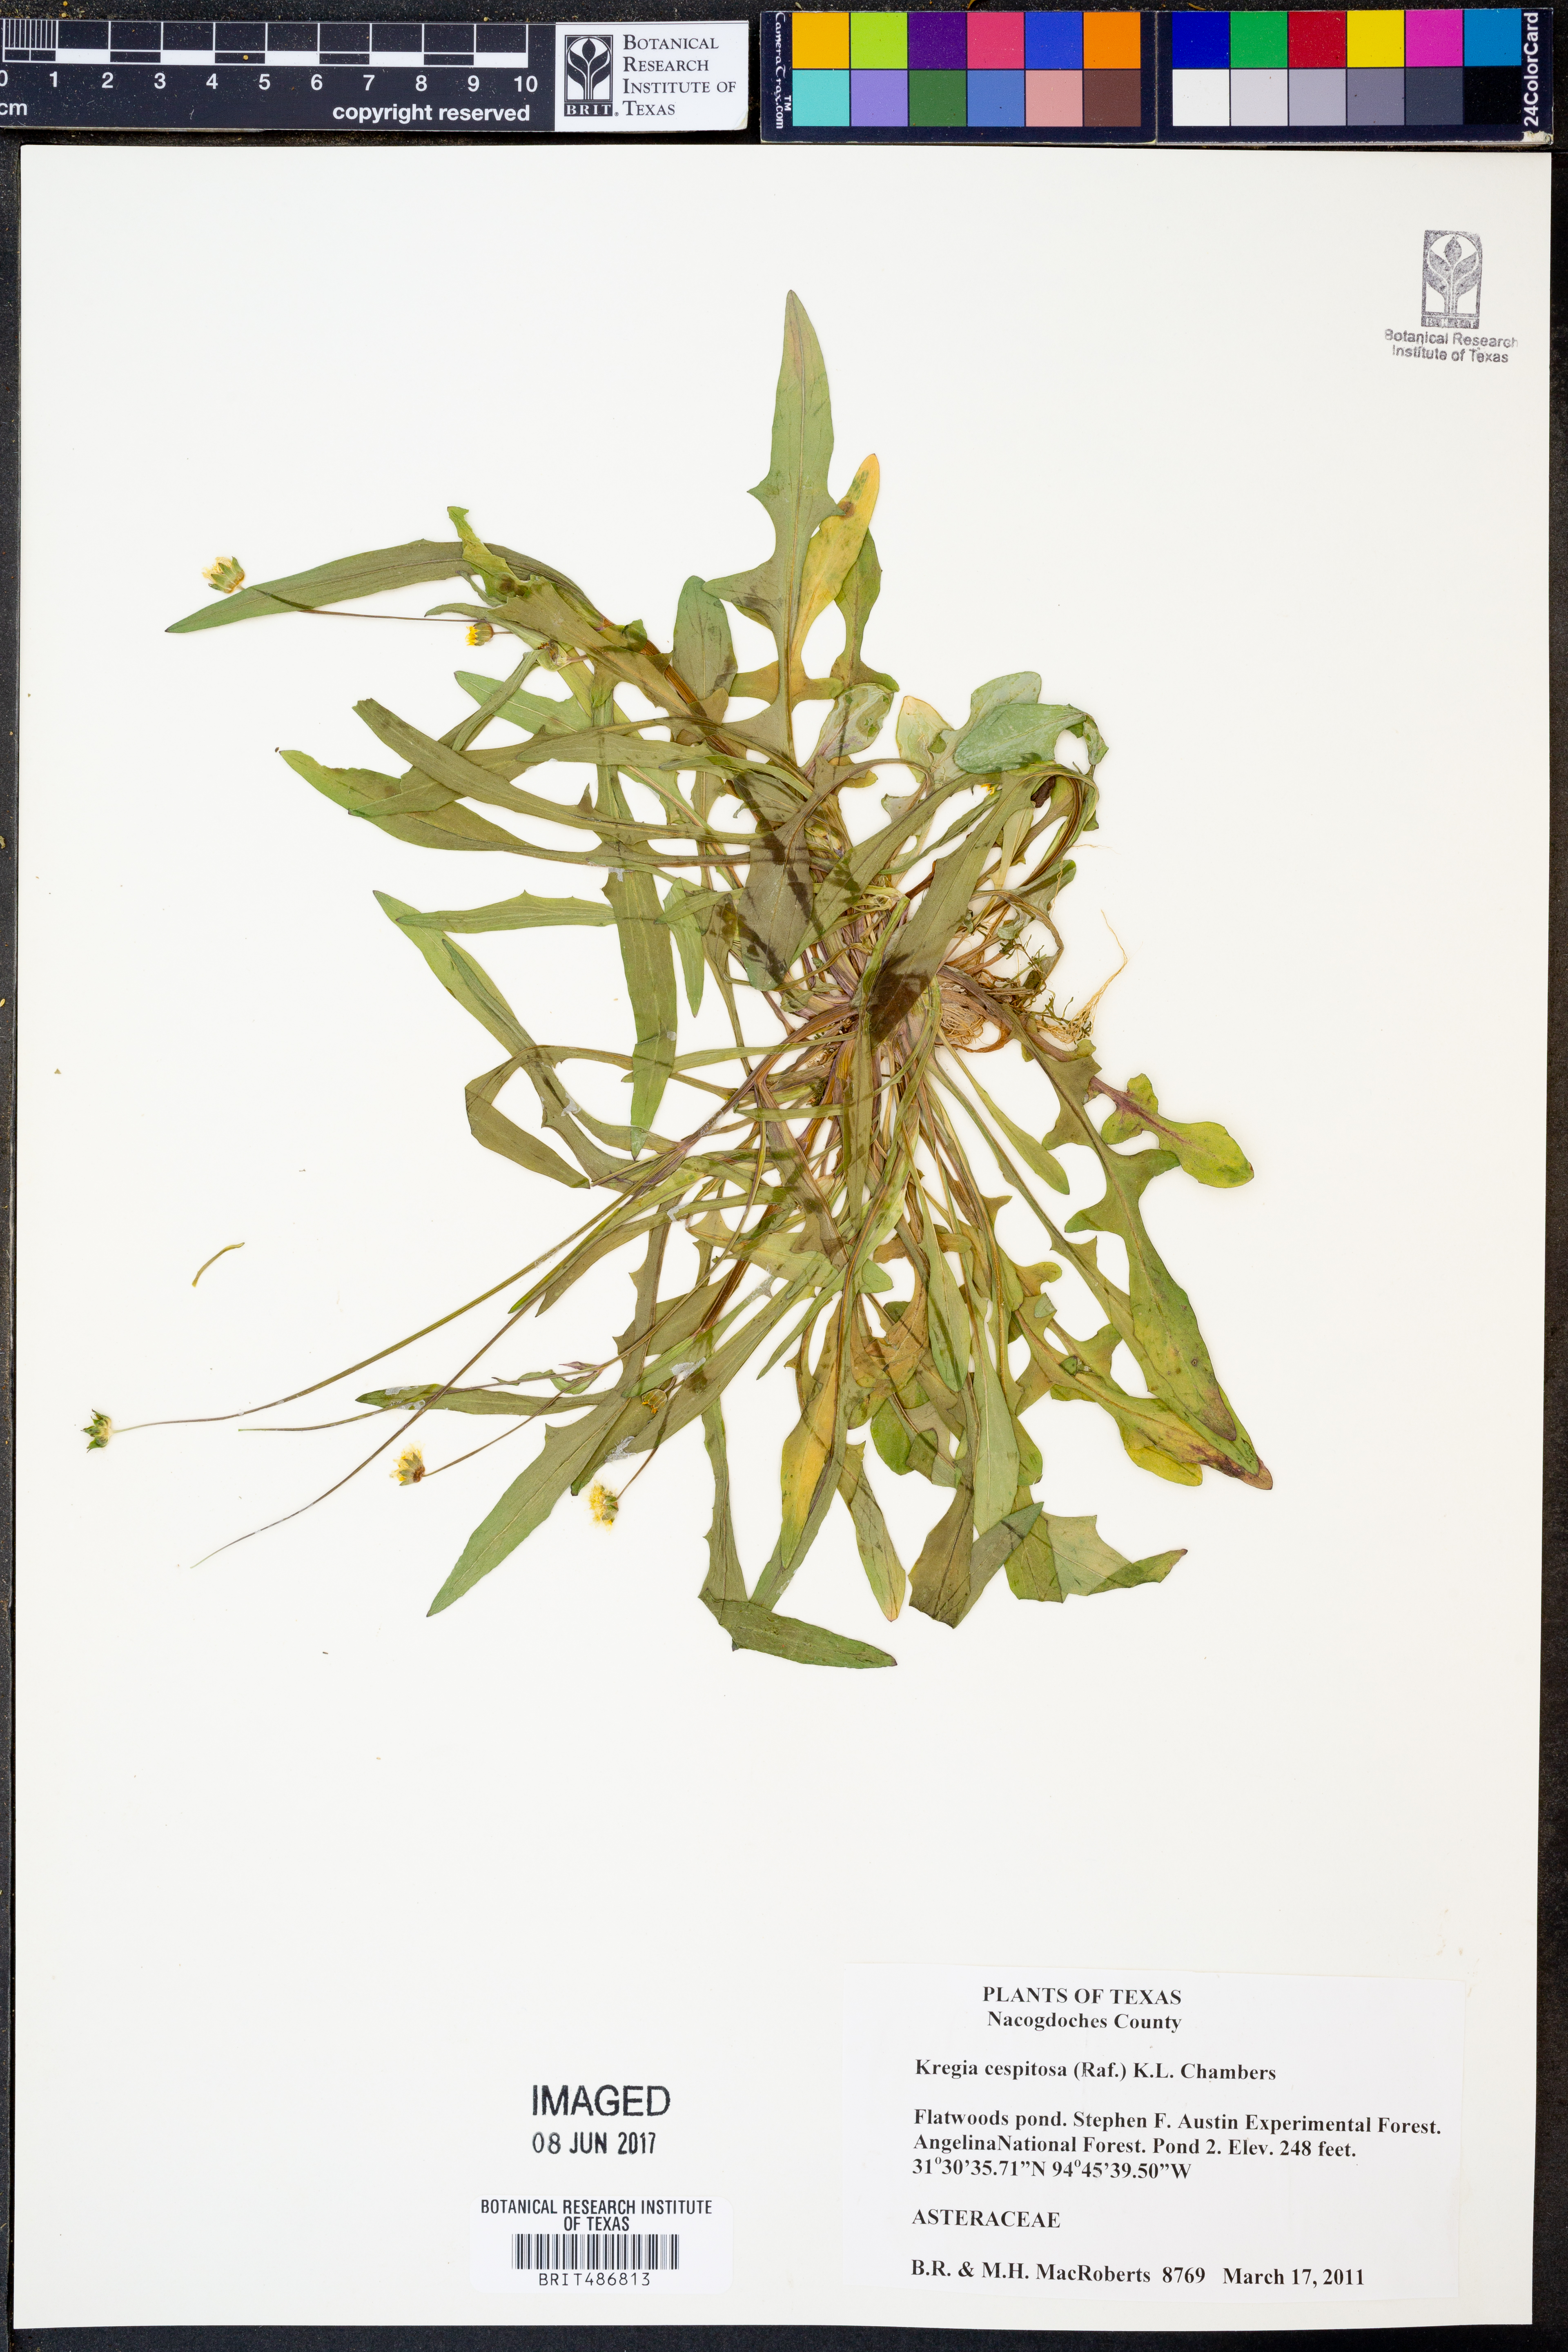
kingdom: Plantae
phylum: Tracheophyta
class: Magnoliopsida
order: Asterales
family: Asteraceae
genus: Krigia
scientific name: Krigia cespitosa
